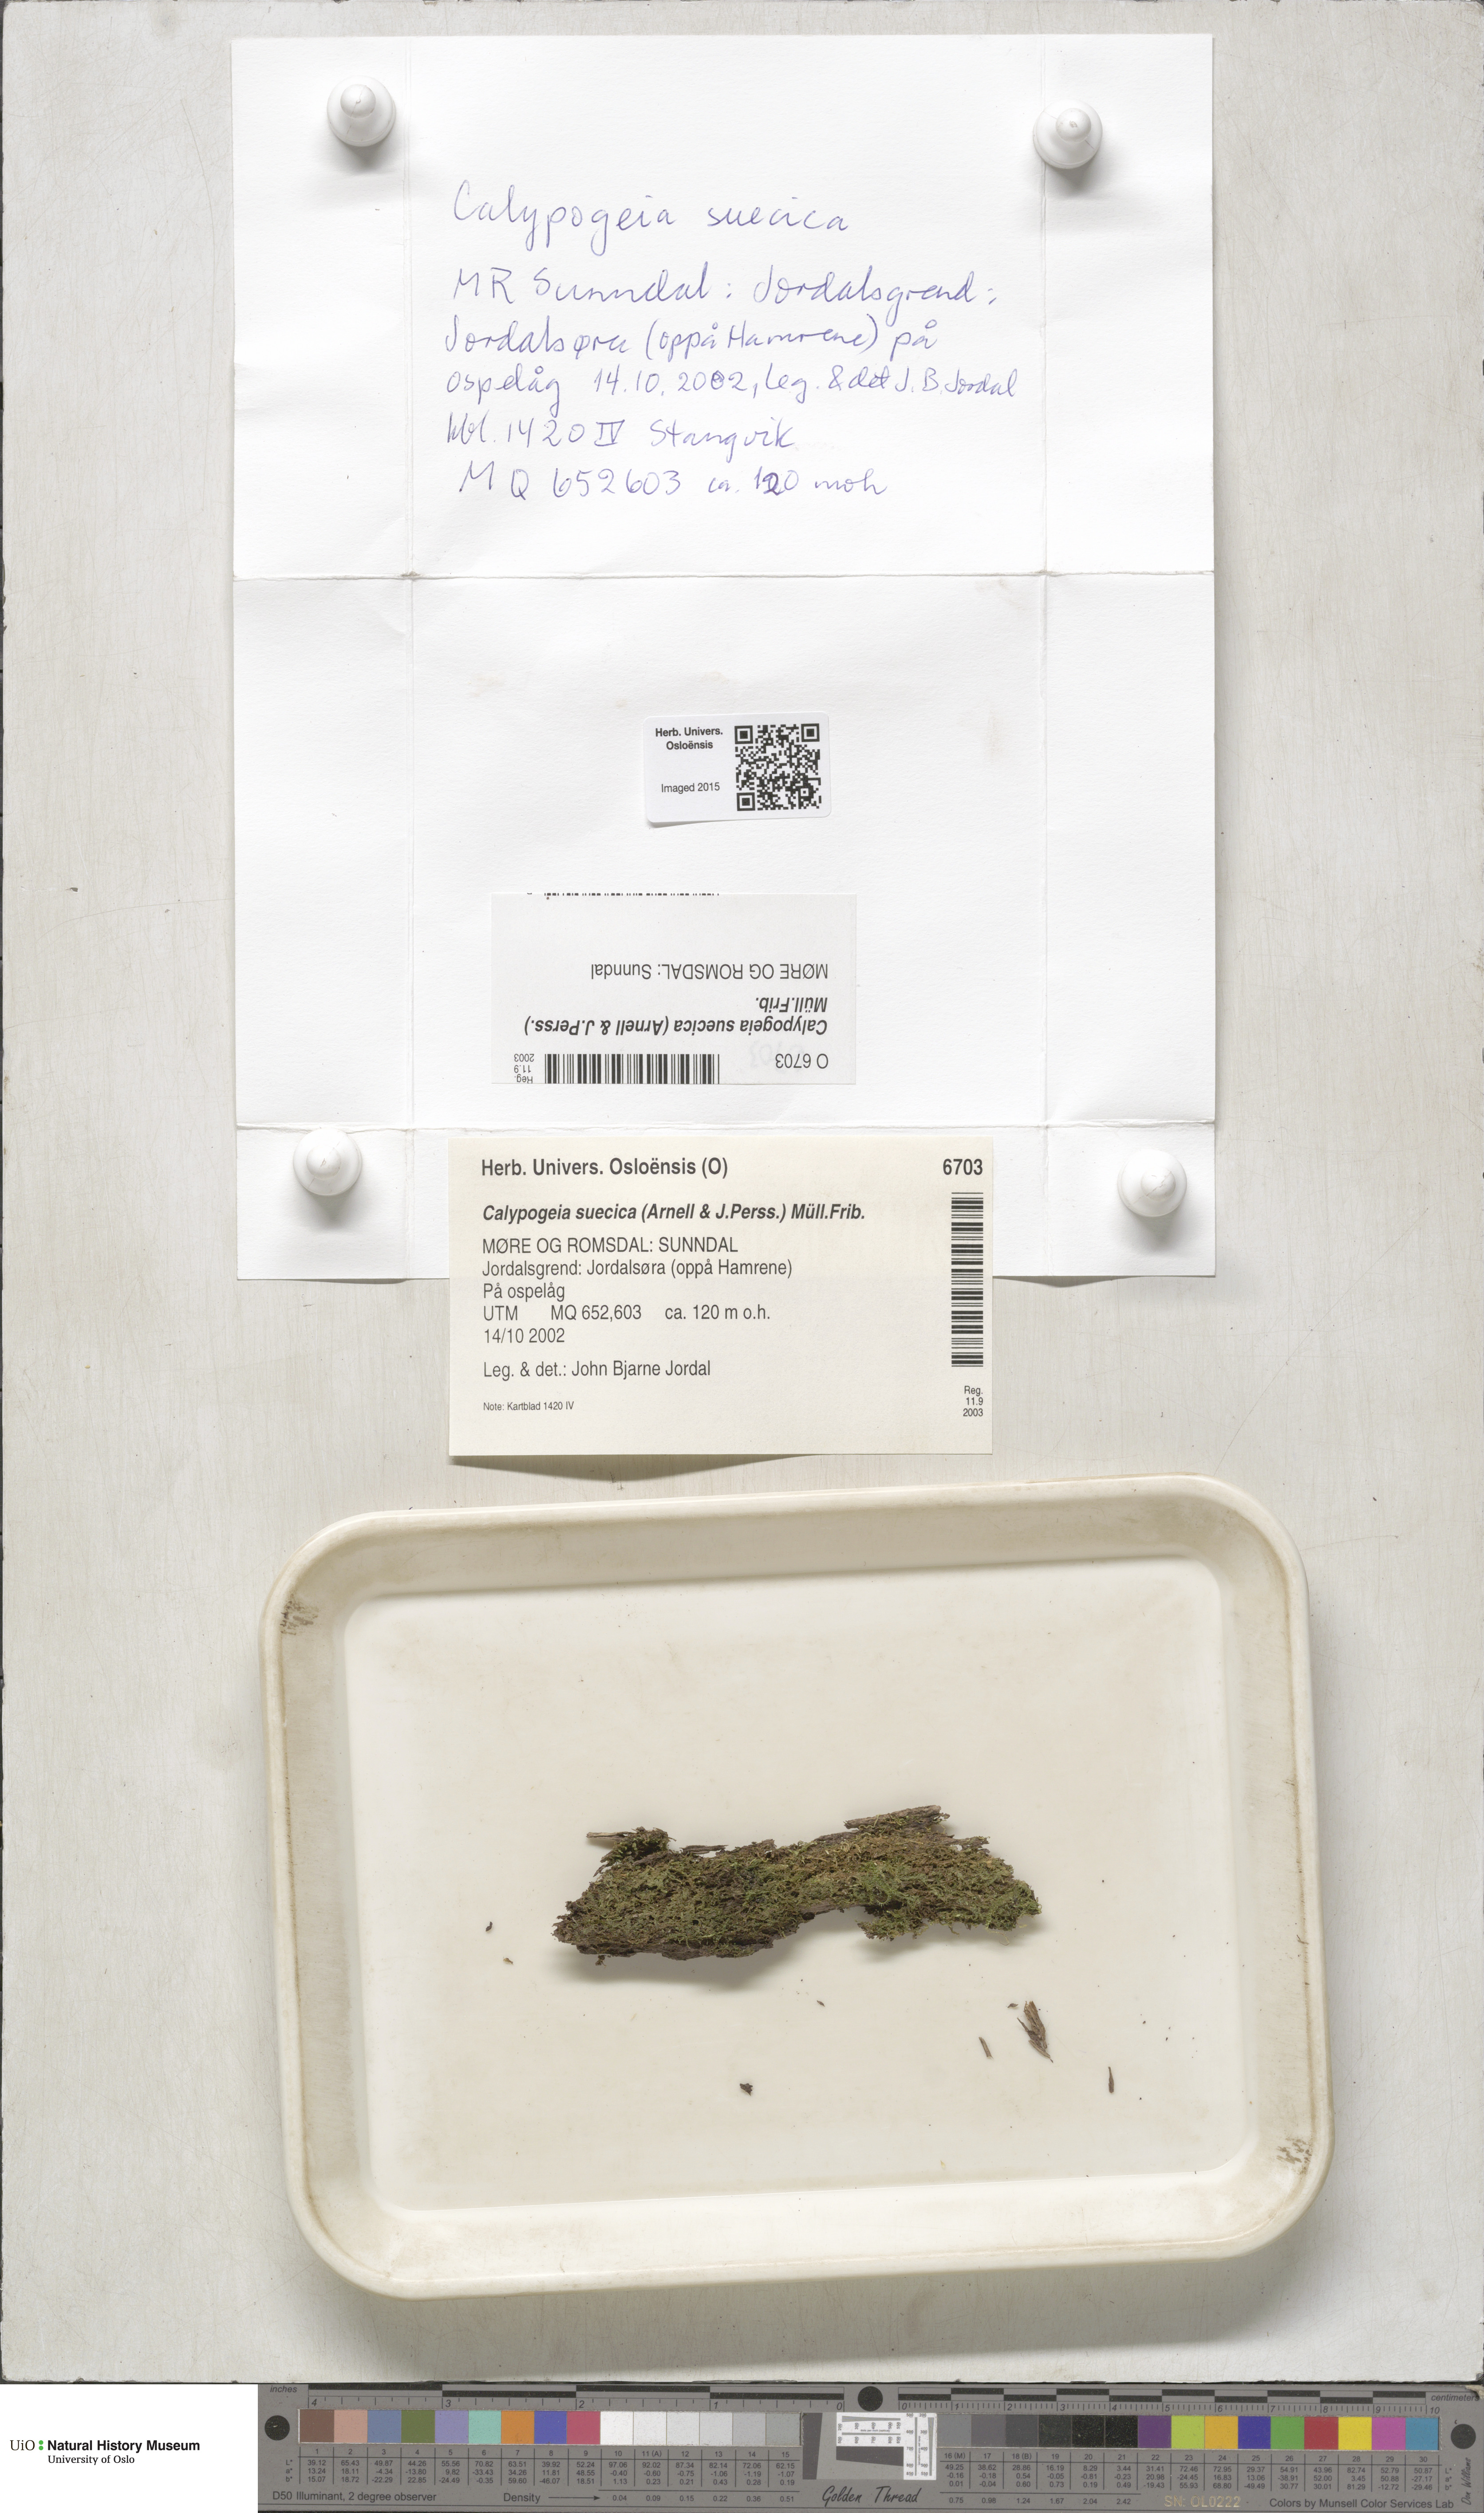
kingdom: Plantae
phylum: Marchantiophyta
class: Jungermanniopsida
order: Jungermanniales
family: Calypogeiaceae
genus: Calypogeia
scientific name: Calypogeia suecica
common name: Swedish pouchwort
